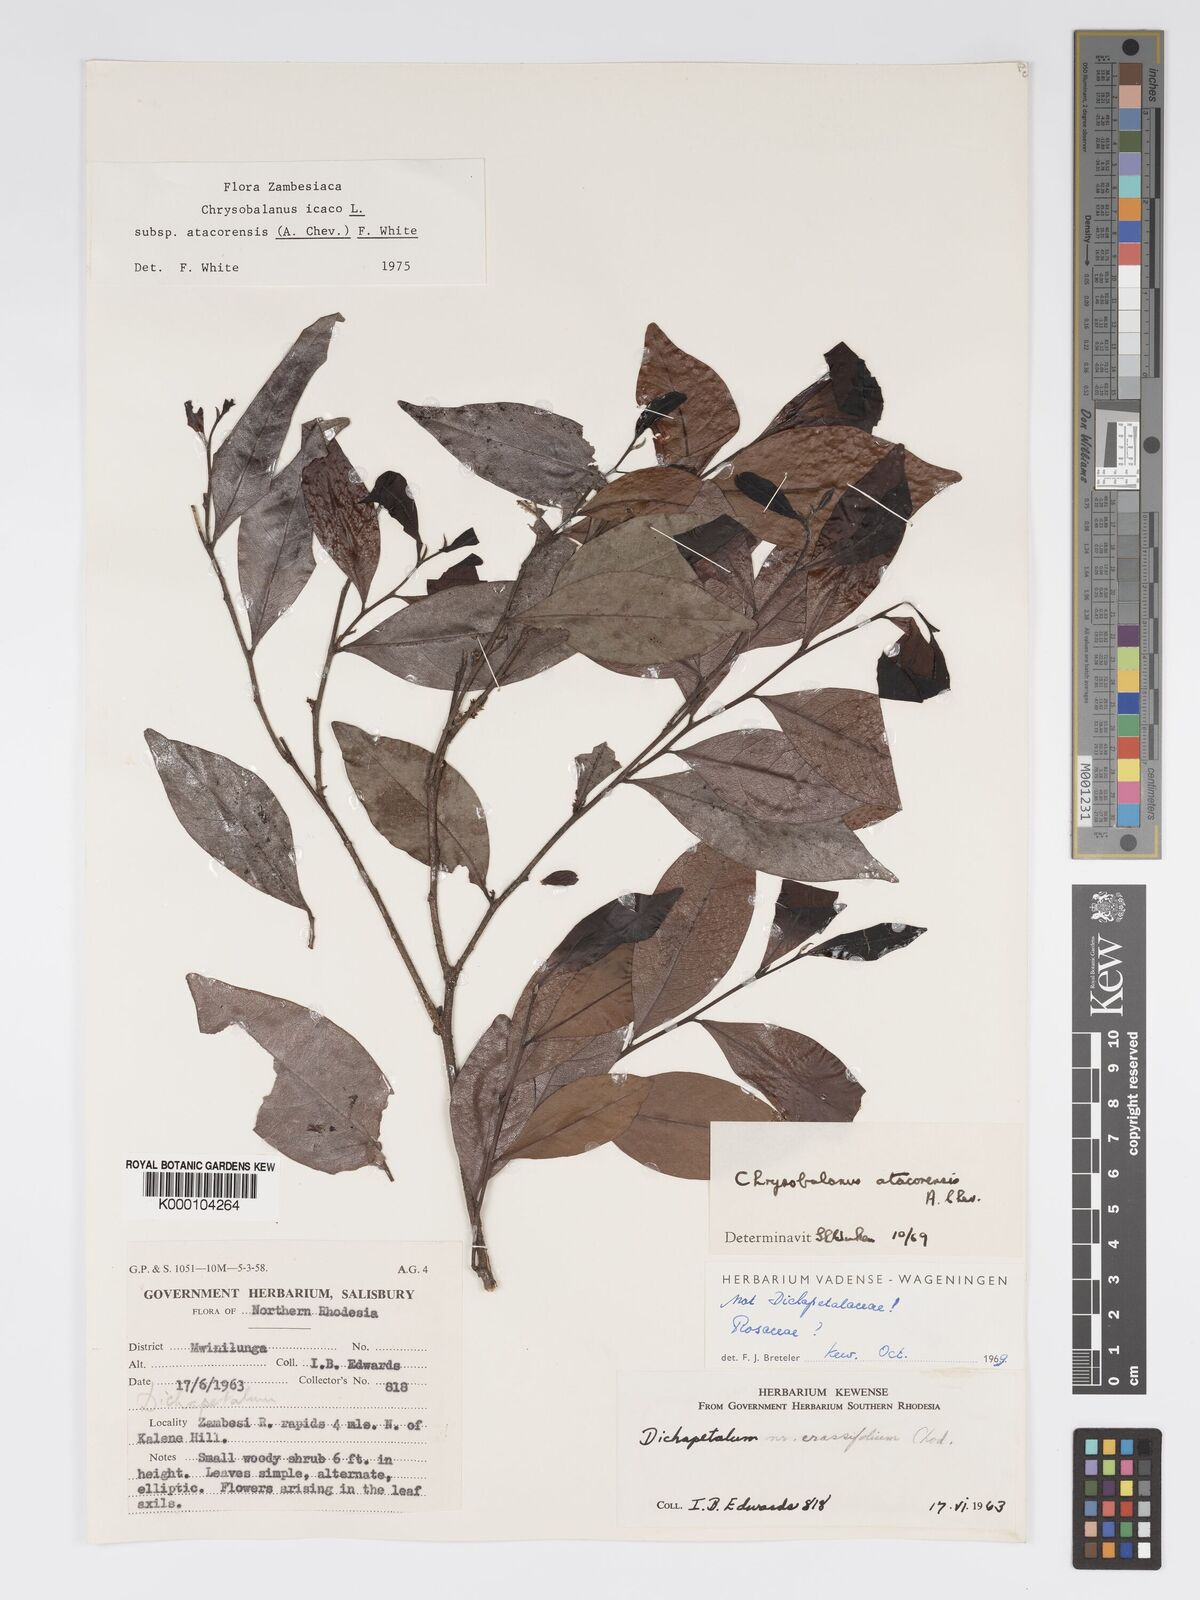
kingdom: Plantae
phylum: Tracheophyta
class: Magnoliopsida
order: Malpighiales
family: Chrysobalanaceae
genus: Chrysobalanus
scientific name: Chrysobalanus icaco
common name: Coco plum
